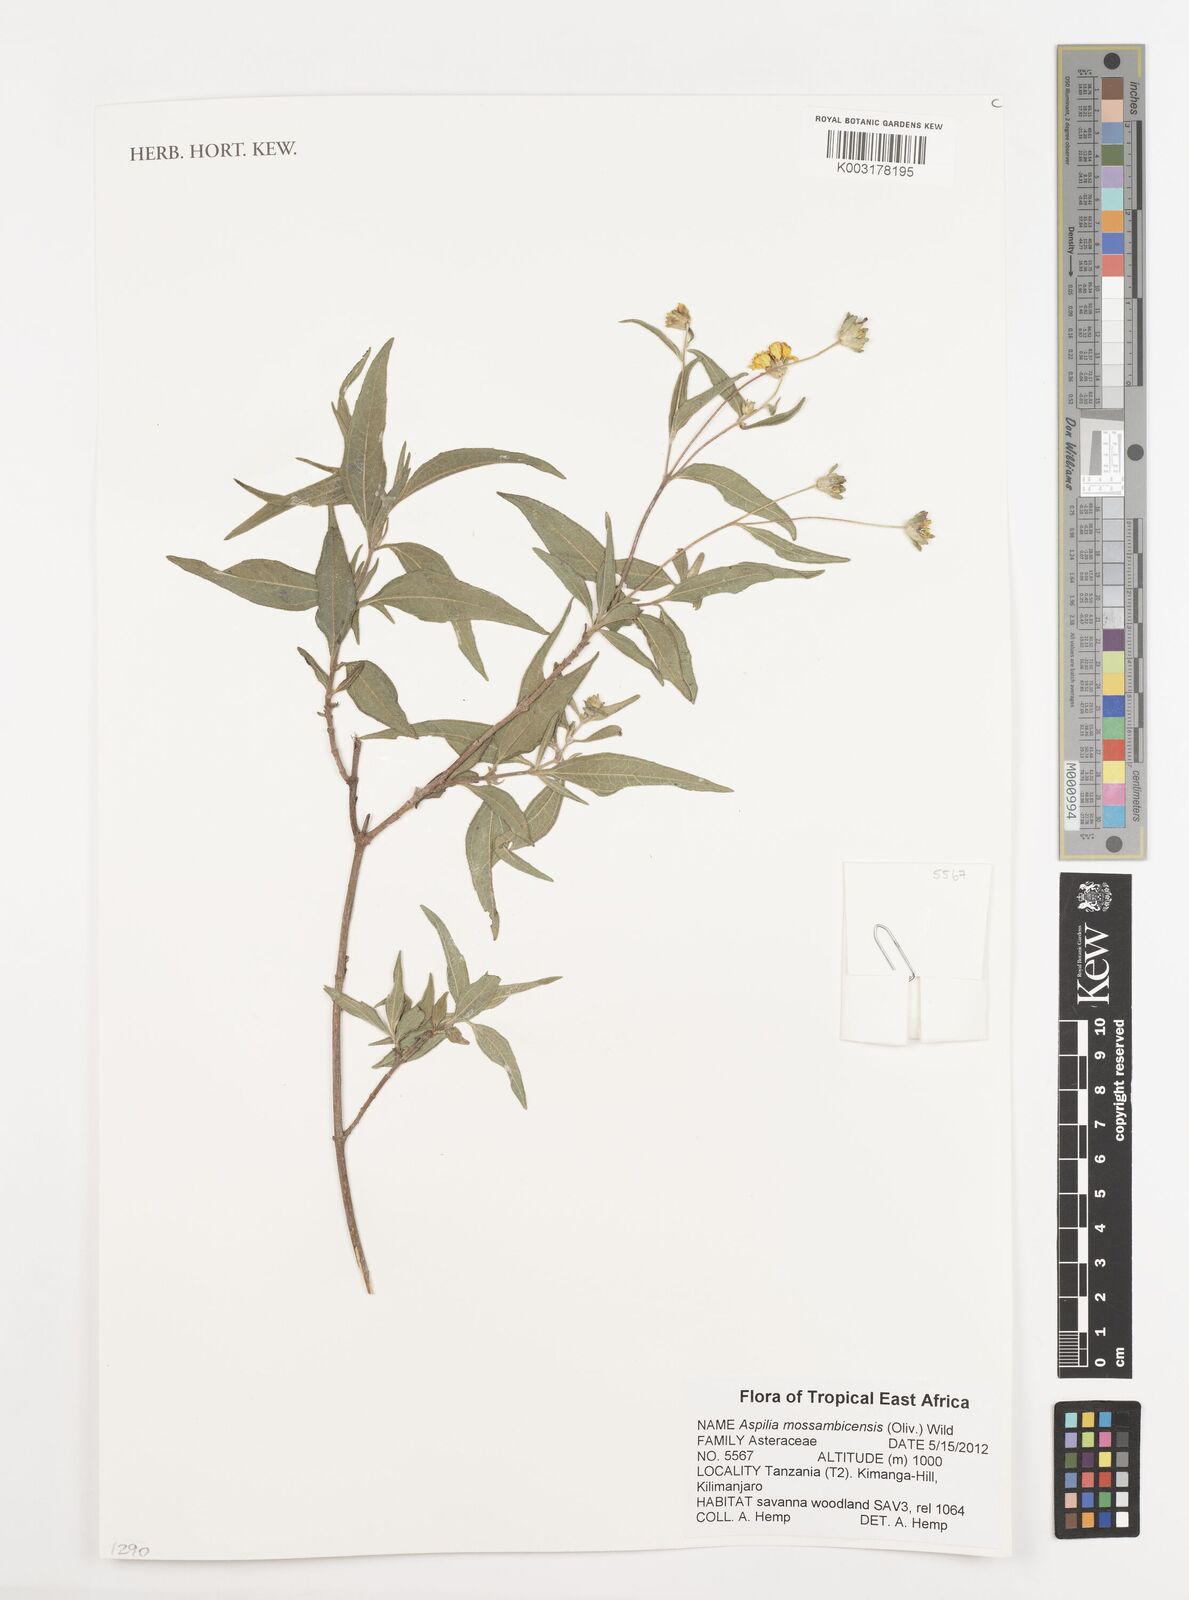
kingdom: Plantae
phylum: Tracheophyta
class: Magnoliopsida
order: Asterales
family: Asteraceae
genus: Aspilia
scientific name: Aspilia mossambicensis
